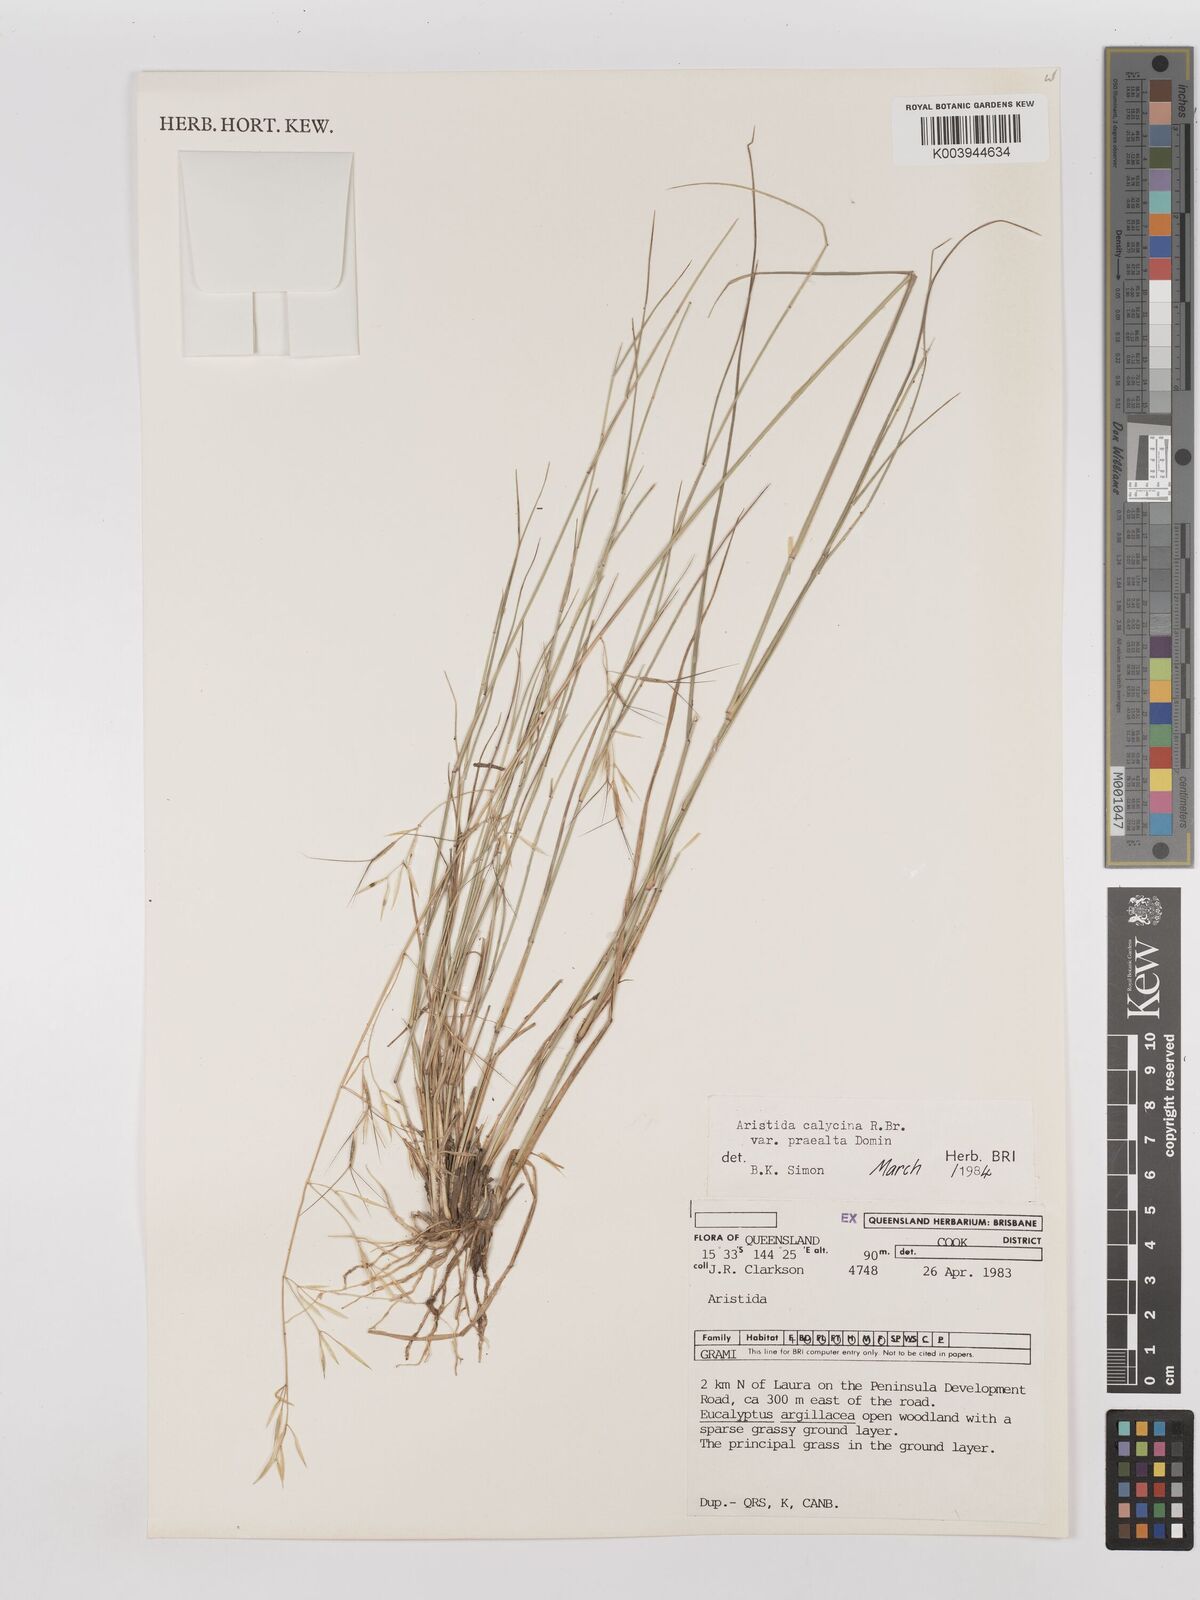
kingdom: Plantae
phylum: Tracheophyta
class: Liliopsida
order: Poales
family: Poaceae
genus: Aristida
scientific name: Aristida calycina
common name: Dark wire grass
